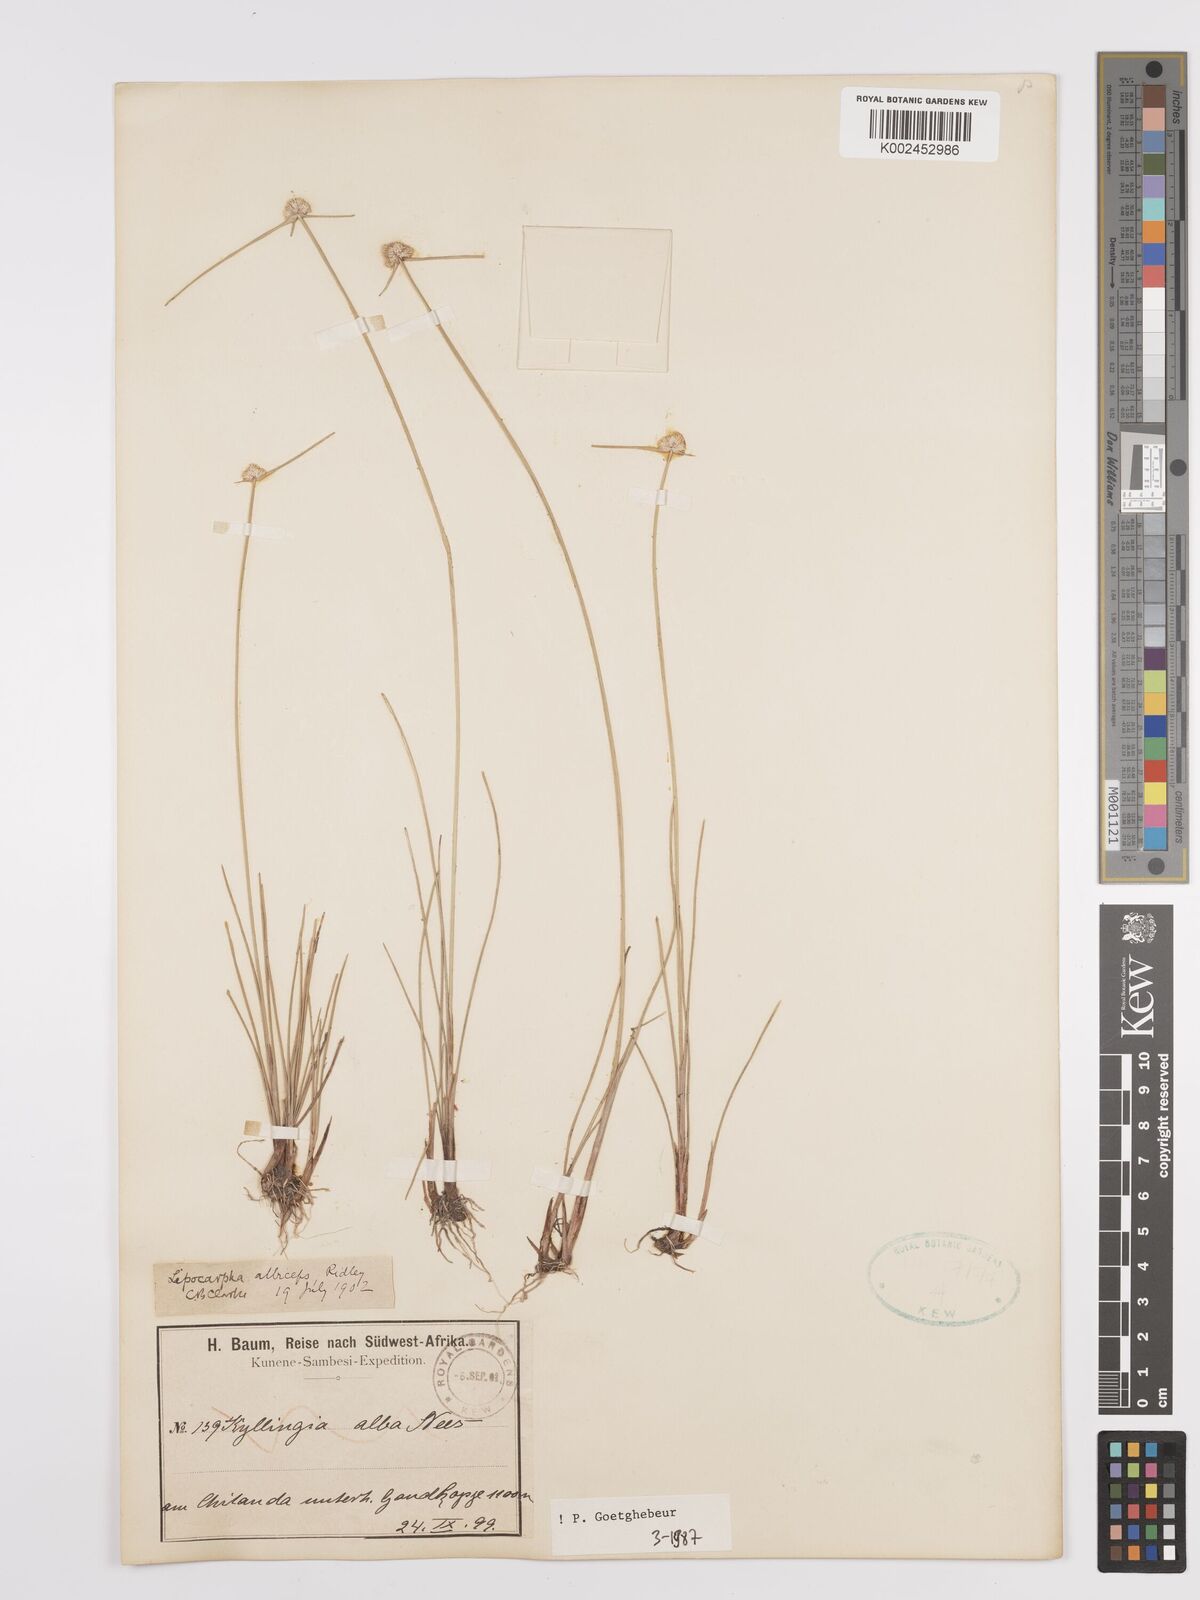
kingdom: Plantae
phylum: Tracheophyta
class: Liliopsida
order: Poales
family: Cyperaceae
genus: Cyperus
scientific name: Cyperus albiceps
